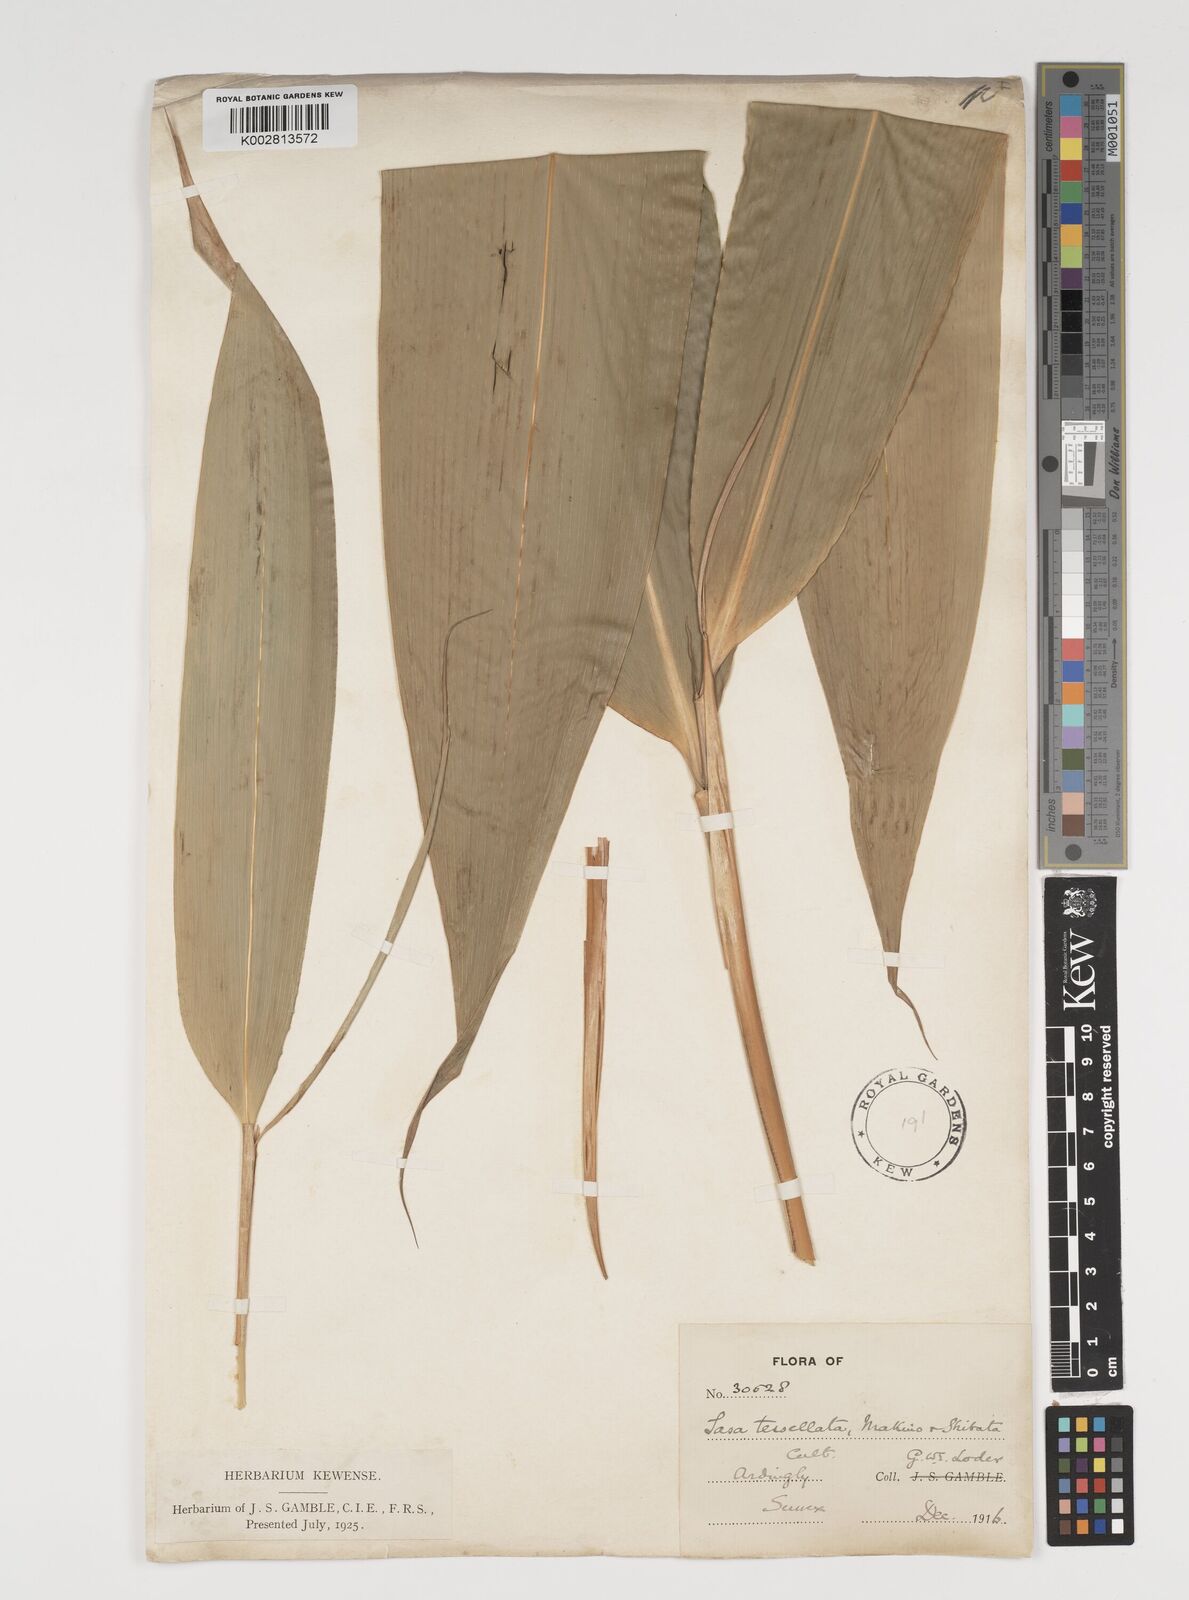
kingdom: Plantae
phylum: Tracheophyta
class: Liliopsida
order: Poales
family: Poaceae
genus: Indocalamus
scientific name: Indocalamus tessellatus
